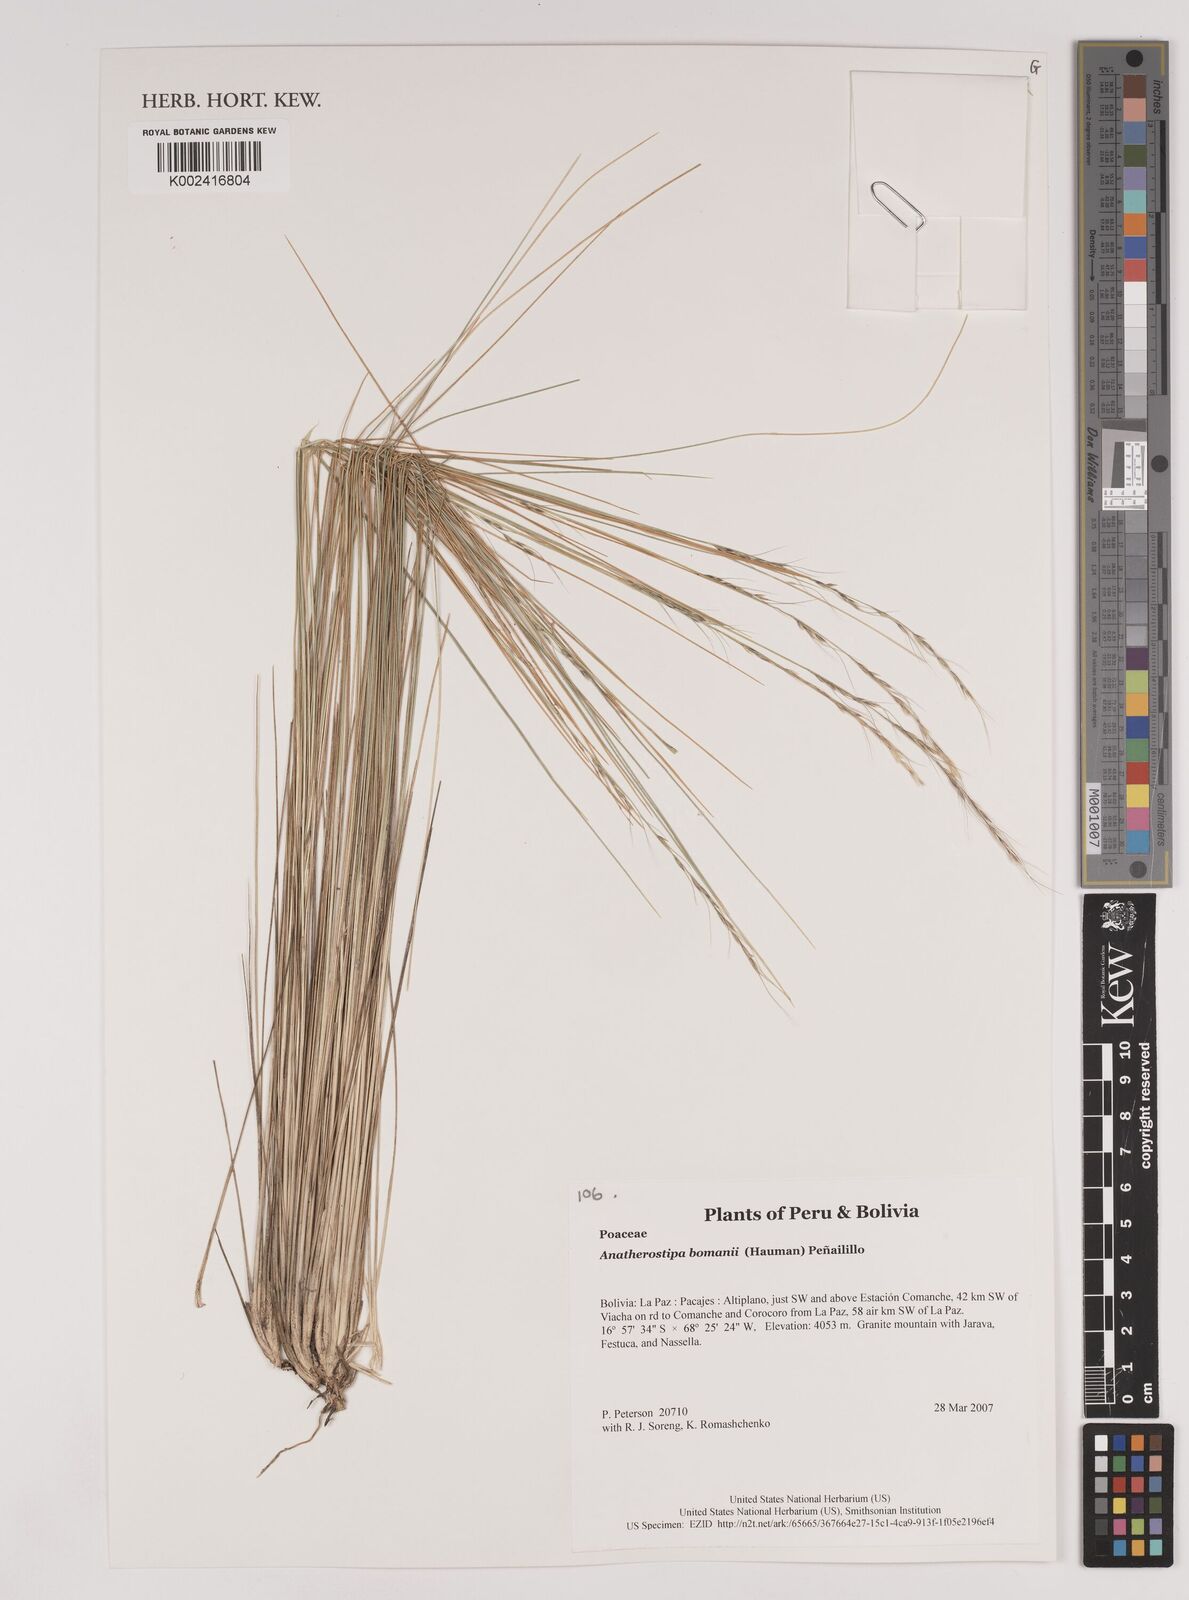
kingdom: Plantae
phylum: Tracheophyta
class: Liliopsida
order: Poales
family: Poaceae
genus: Stipa
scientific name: Stipa bomanii
